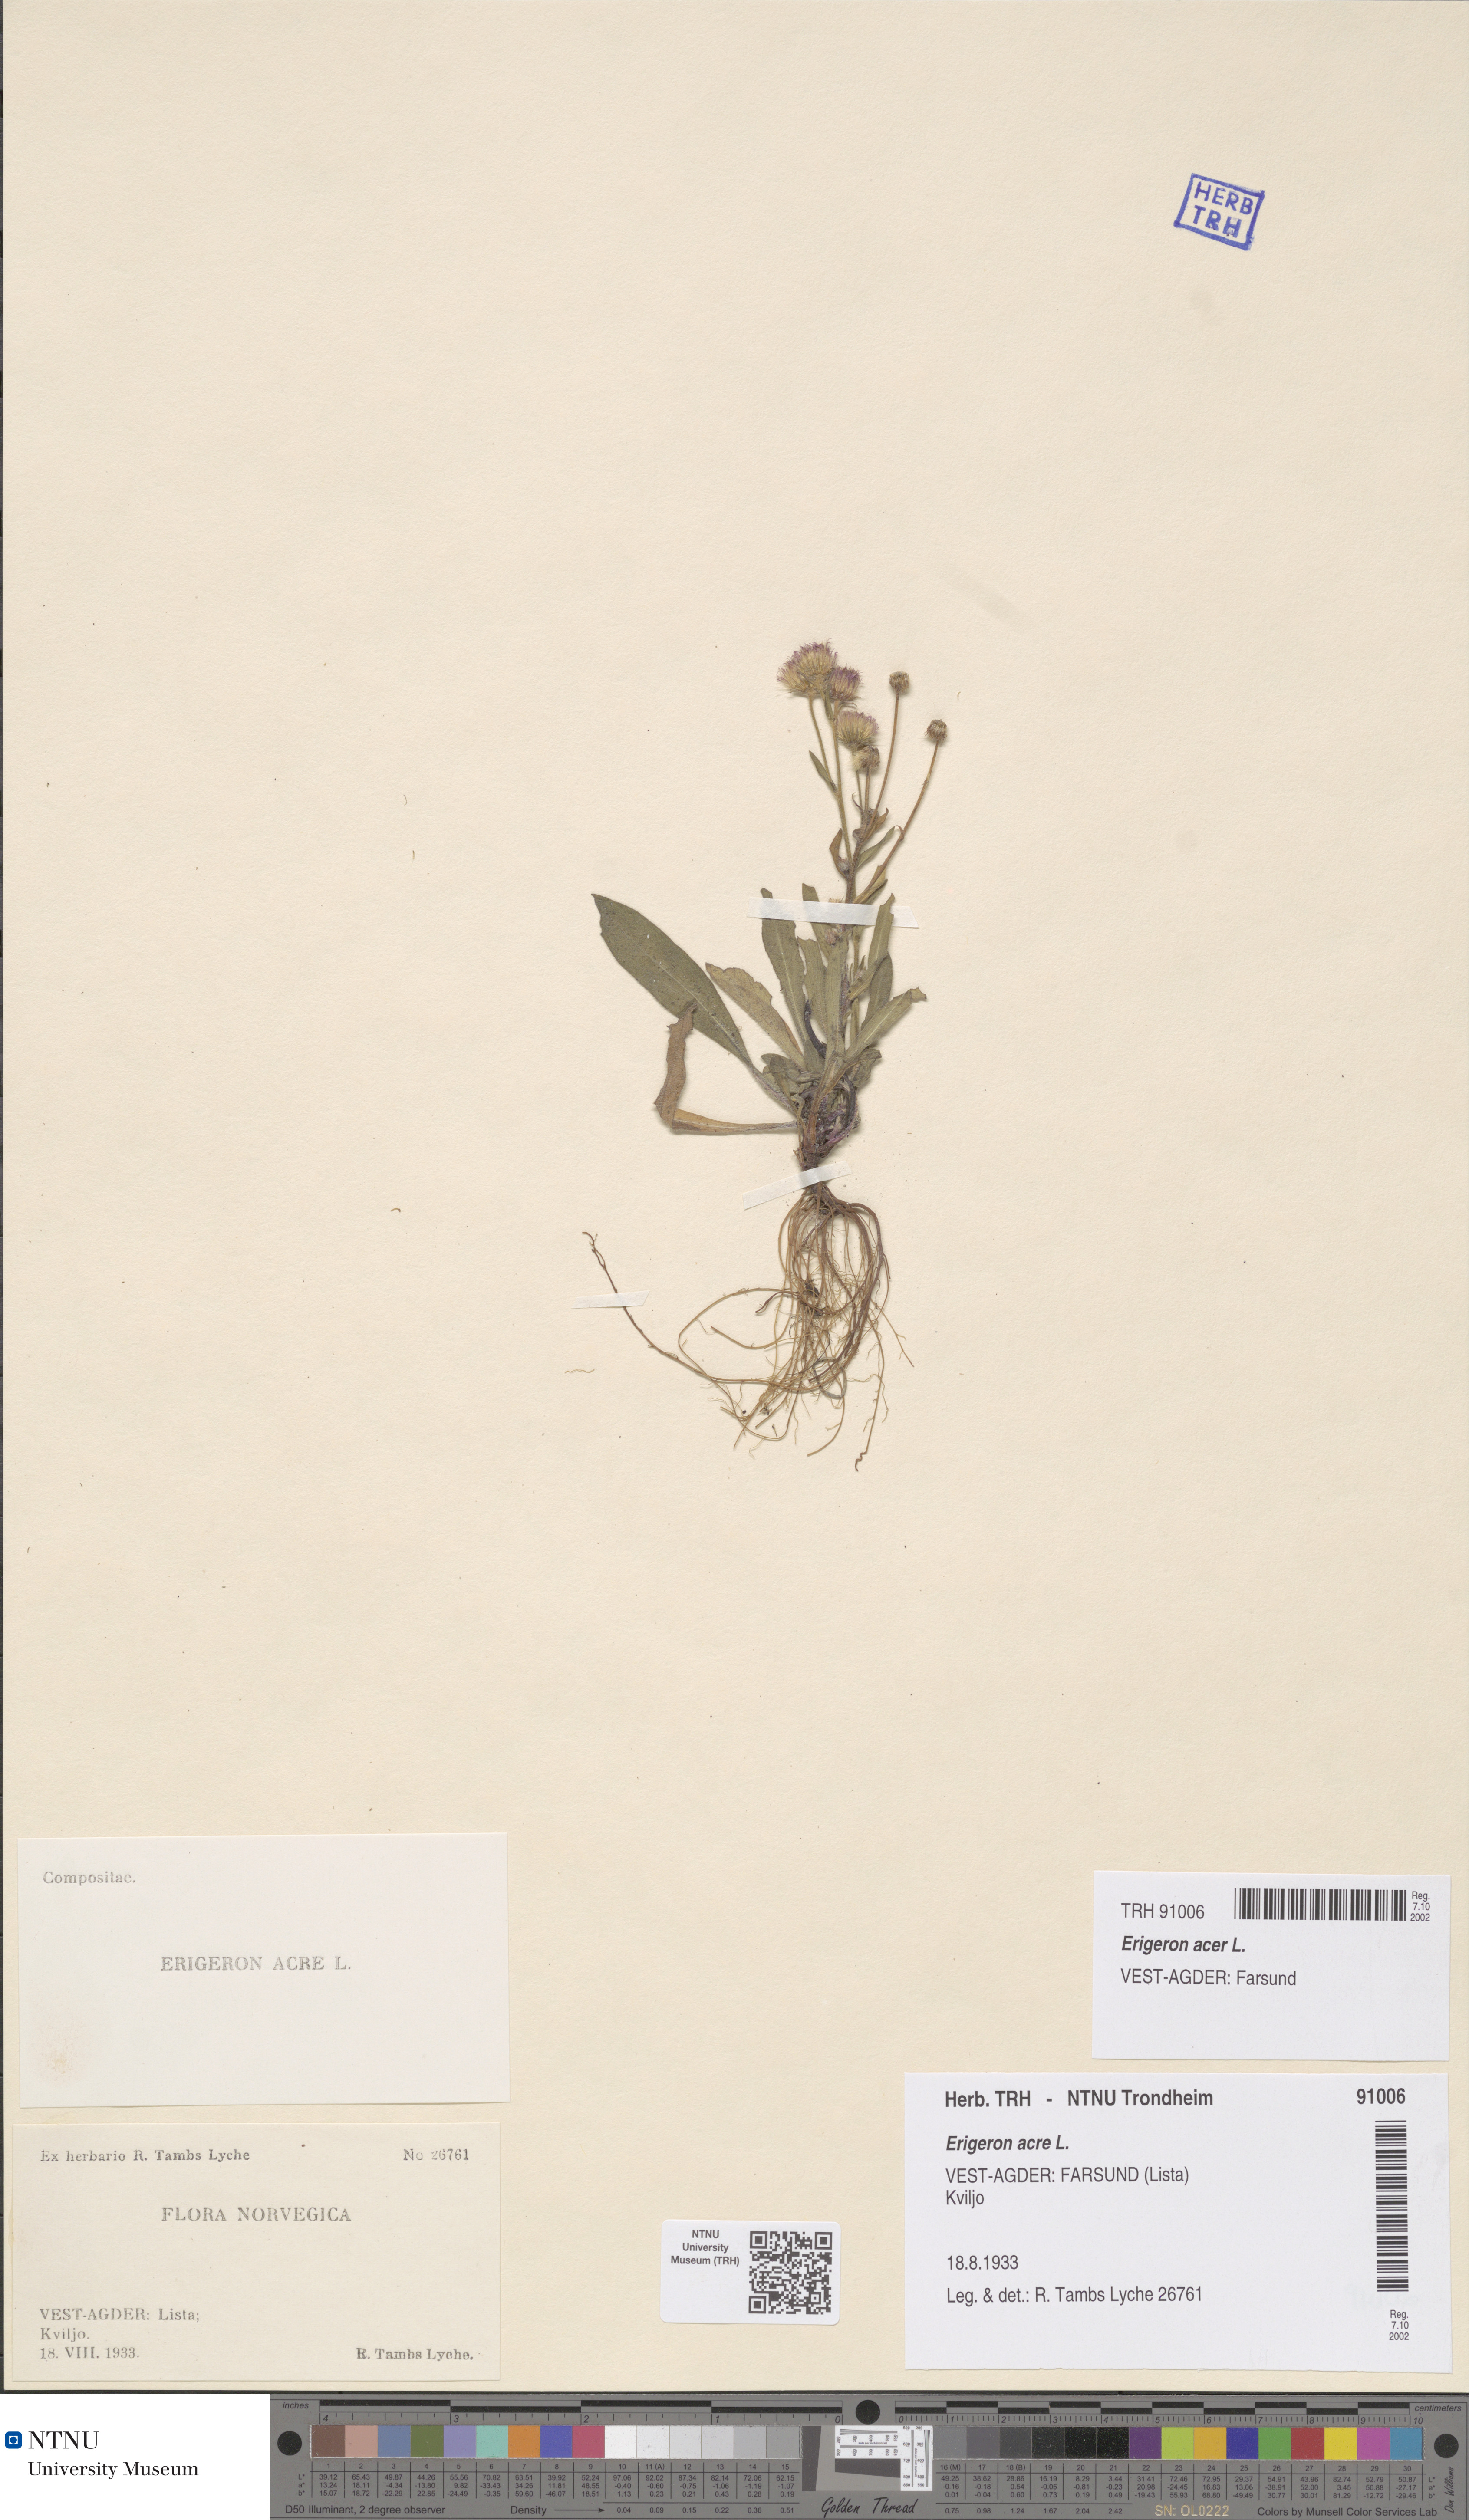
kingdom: Plantae
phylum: Tracheophyta
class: Magnoliopsida
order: Asterales
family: Asteraceae
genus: Erigeron
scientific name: Erigeron acris
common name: Blue fleabane
